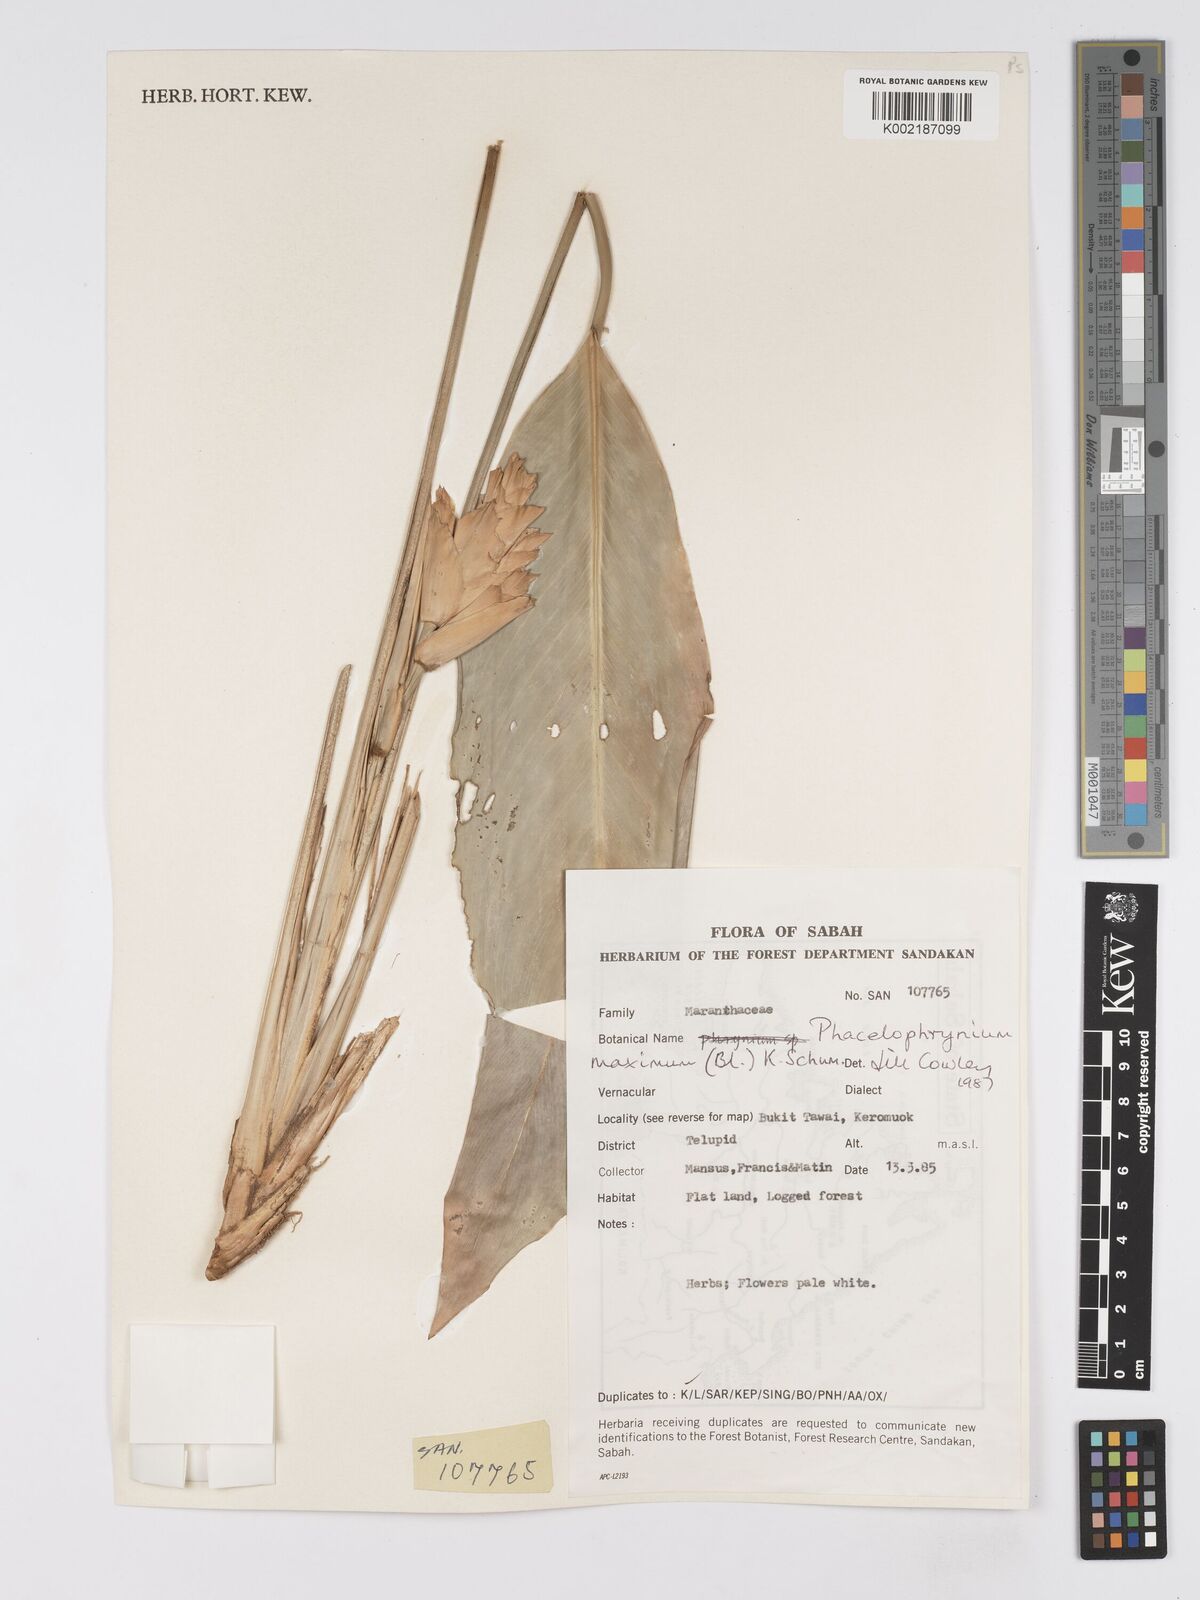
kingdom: Plantae
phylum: Tracheophyta
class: Liliopsida
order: Zingiberales
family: Marantaceae
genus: Phrynium
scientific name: Phrynium maximum
